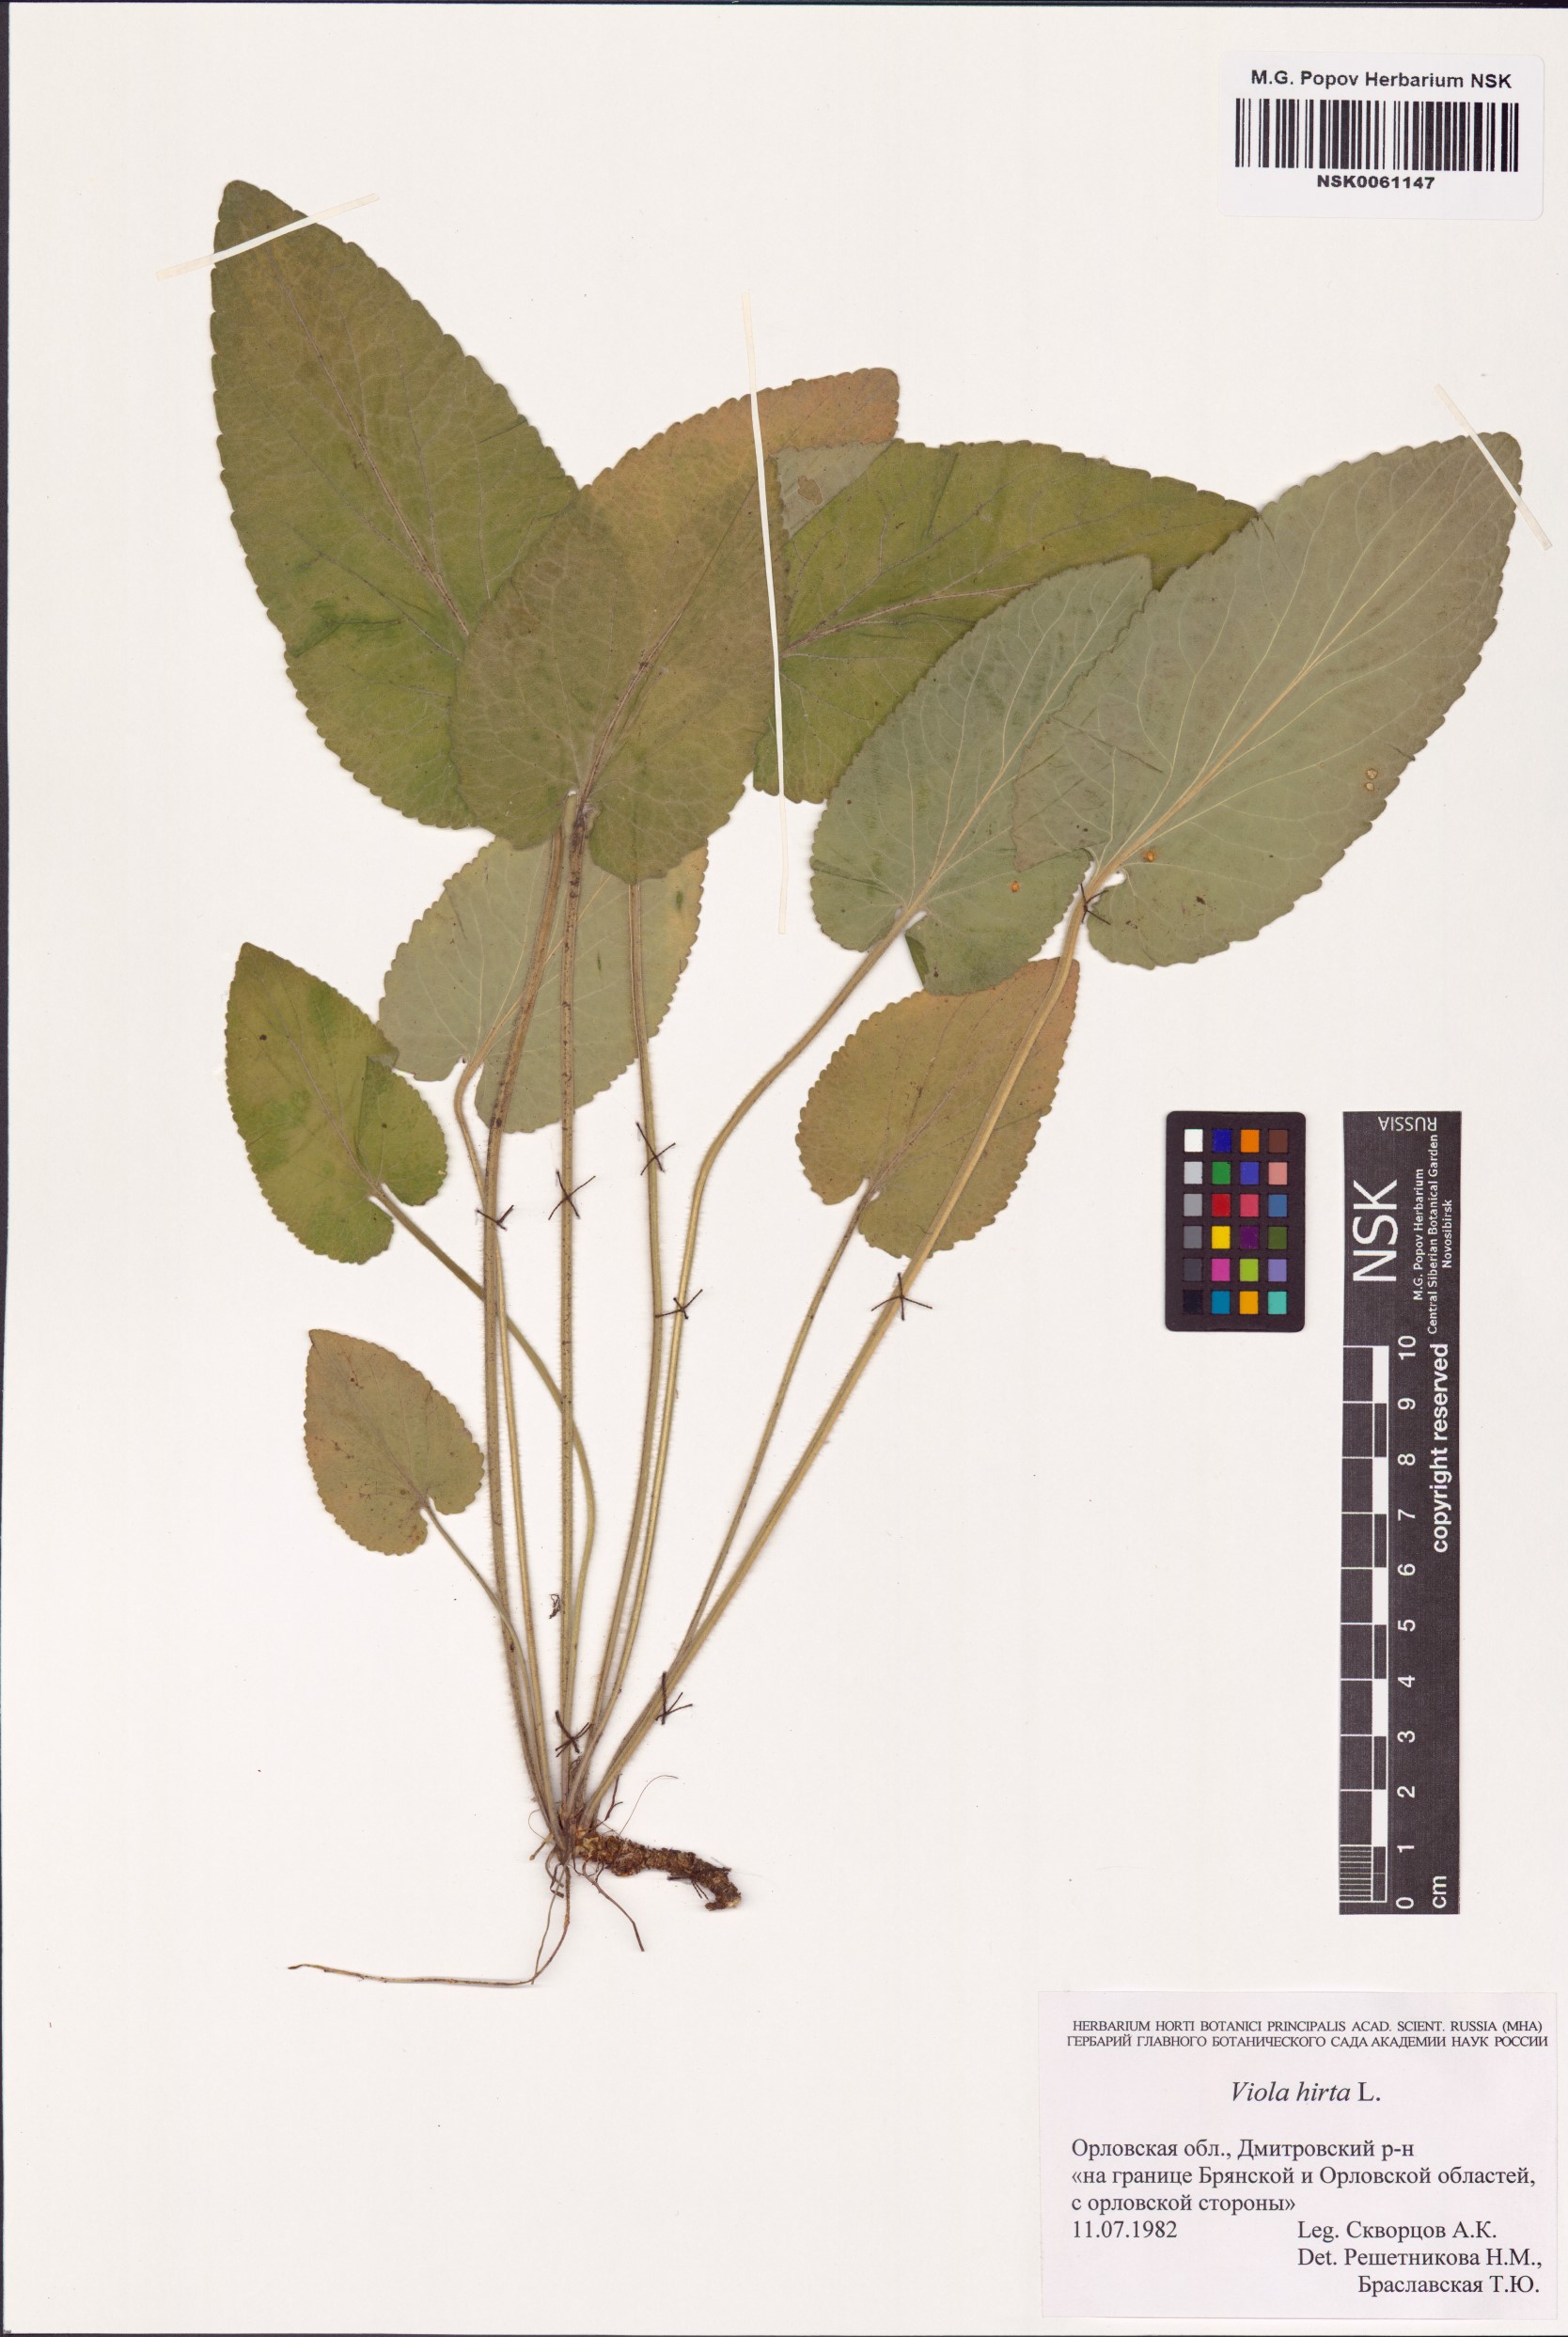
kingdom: Plantae
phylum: Tracheophyta
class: Magnoliopsida
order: Malpighiales
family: Violaceae
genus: Viola
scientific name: Viola hirta
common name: Hairy violet
